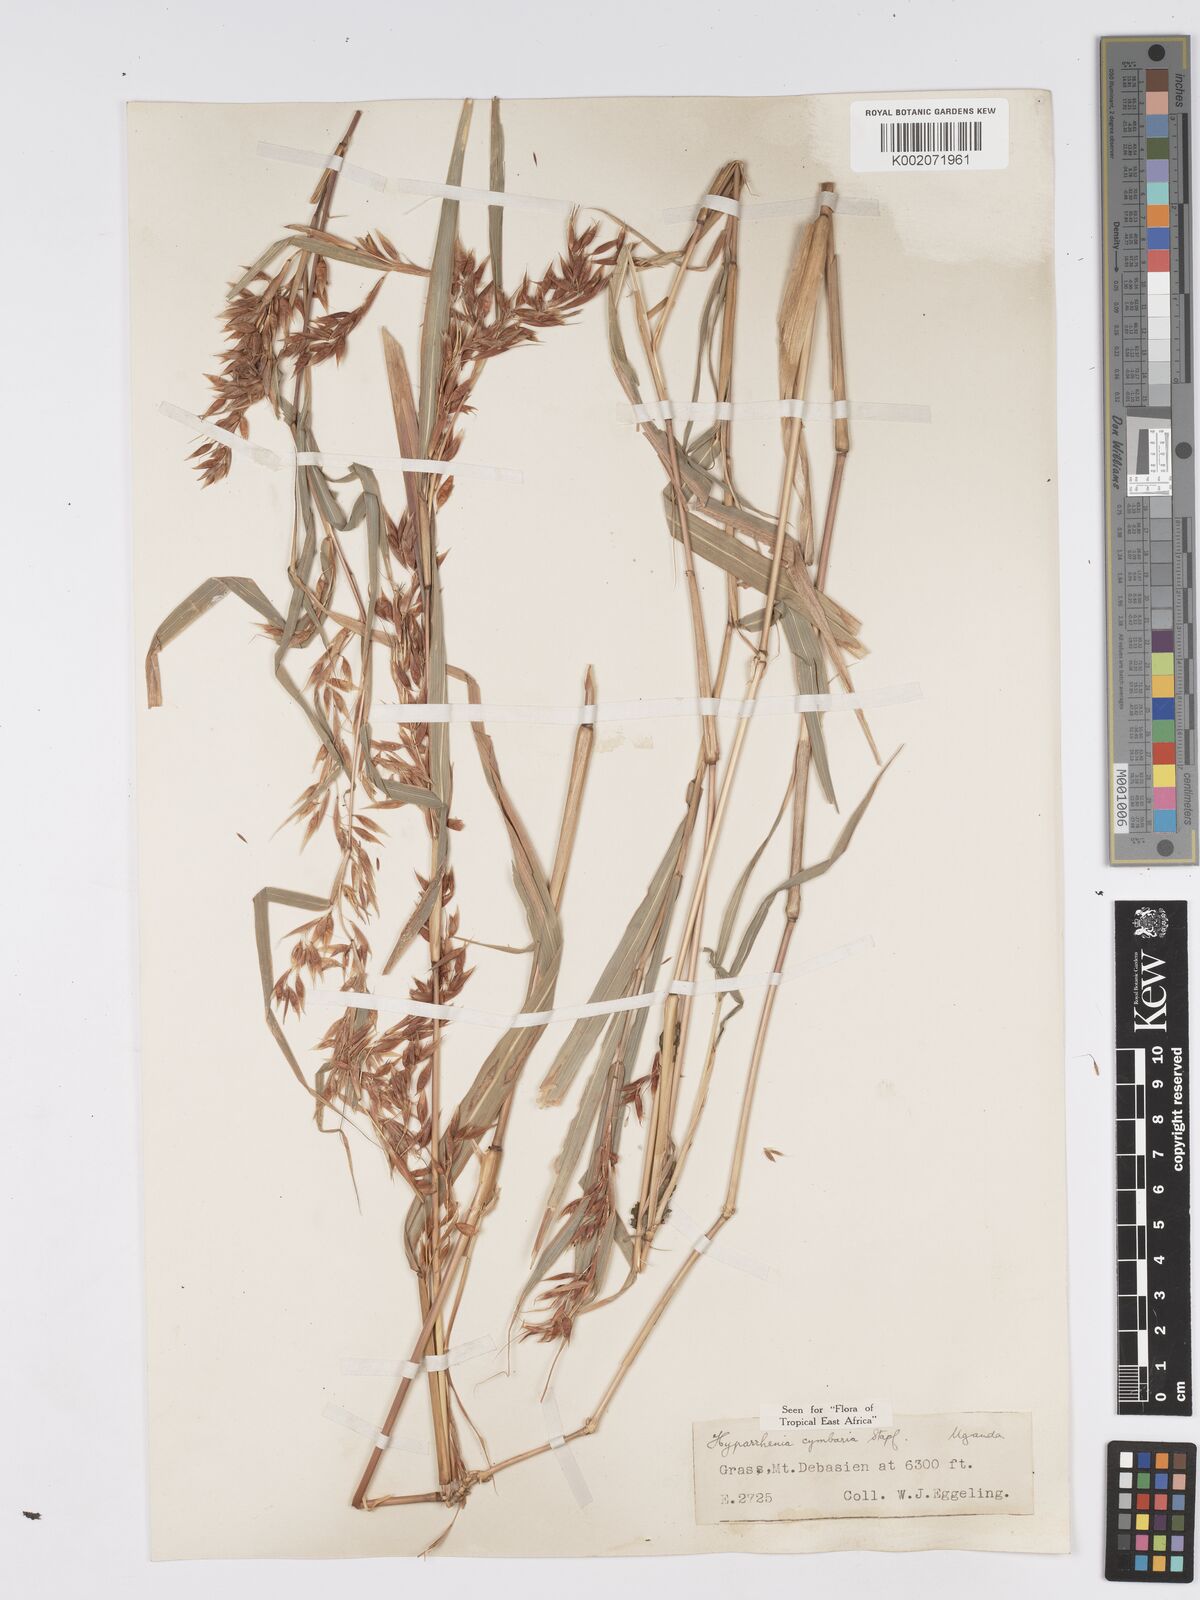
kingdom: Plantae
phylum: Tracheophyta
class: Liliopsida
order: Poales
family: Poaceae
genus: Hyparrhenia
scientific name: Hyparrhenia cymbaria
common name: Boat thatching grass
